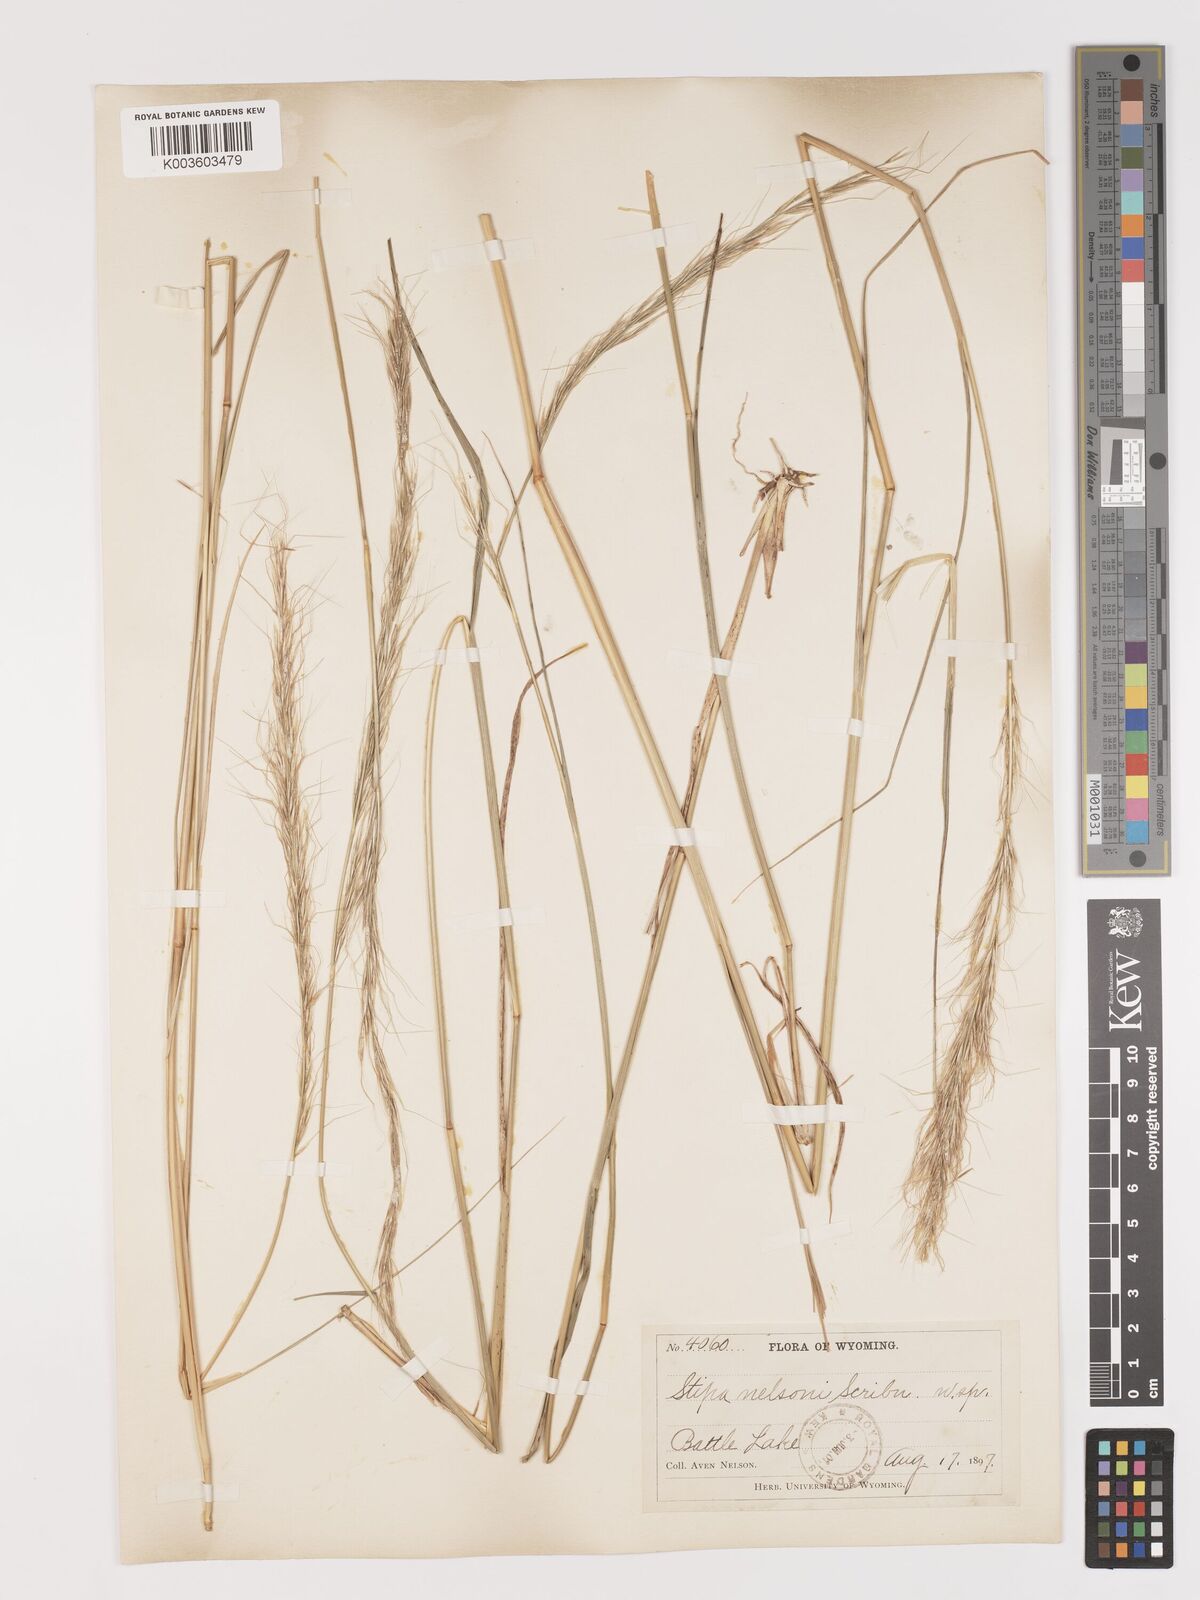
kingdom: Plantae
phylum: Tracheophyta
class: Liliopsida
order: Poales
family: Poaceae
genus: Eriocoma
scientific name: Eriocoma nelsonii
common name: Nelson's needlegrass
